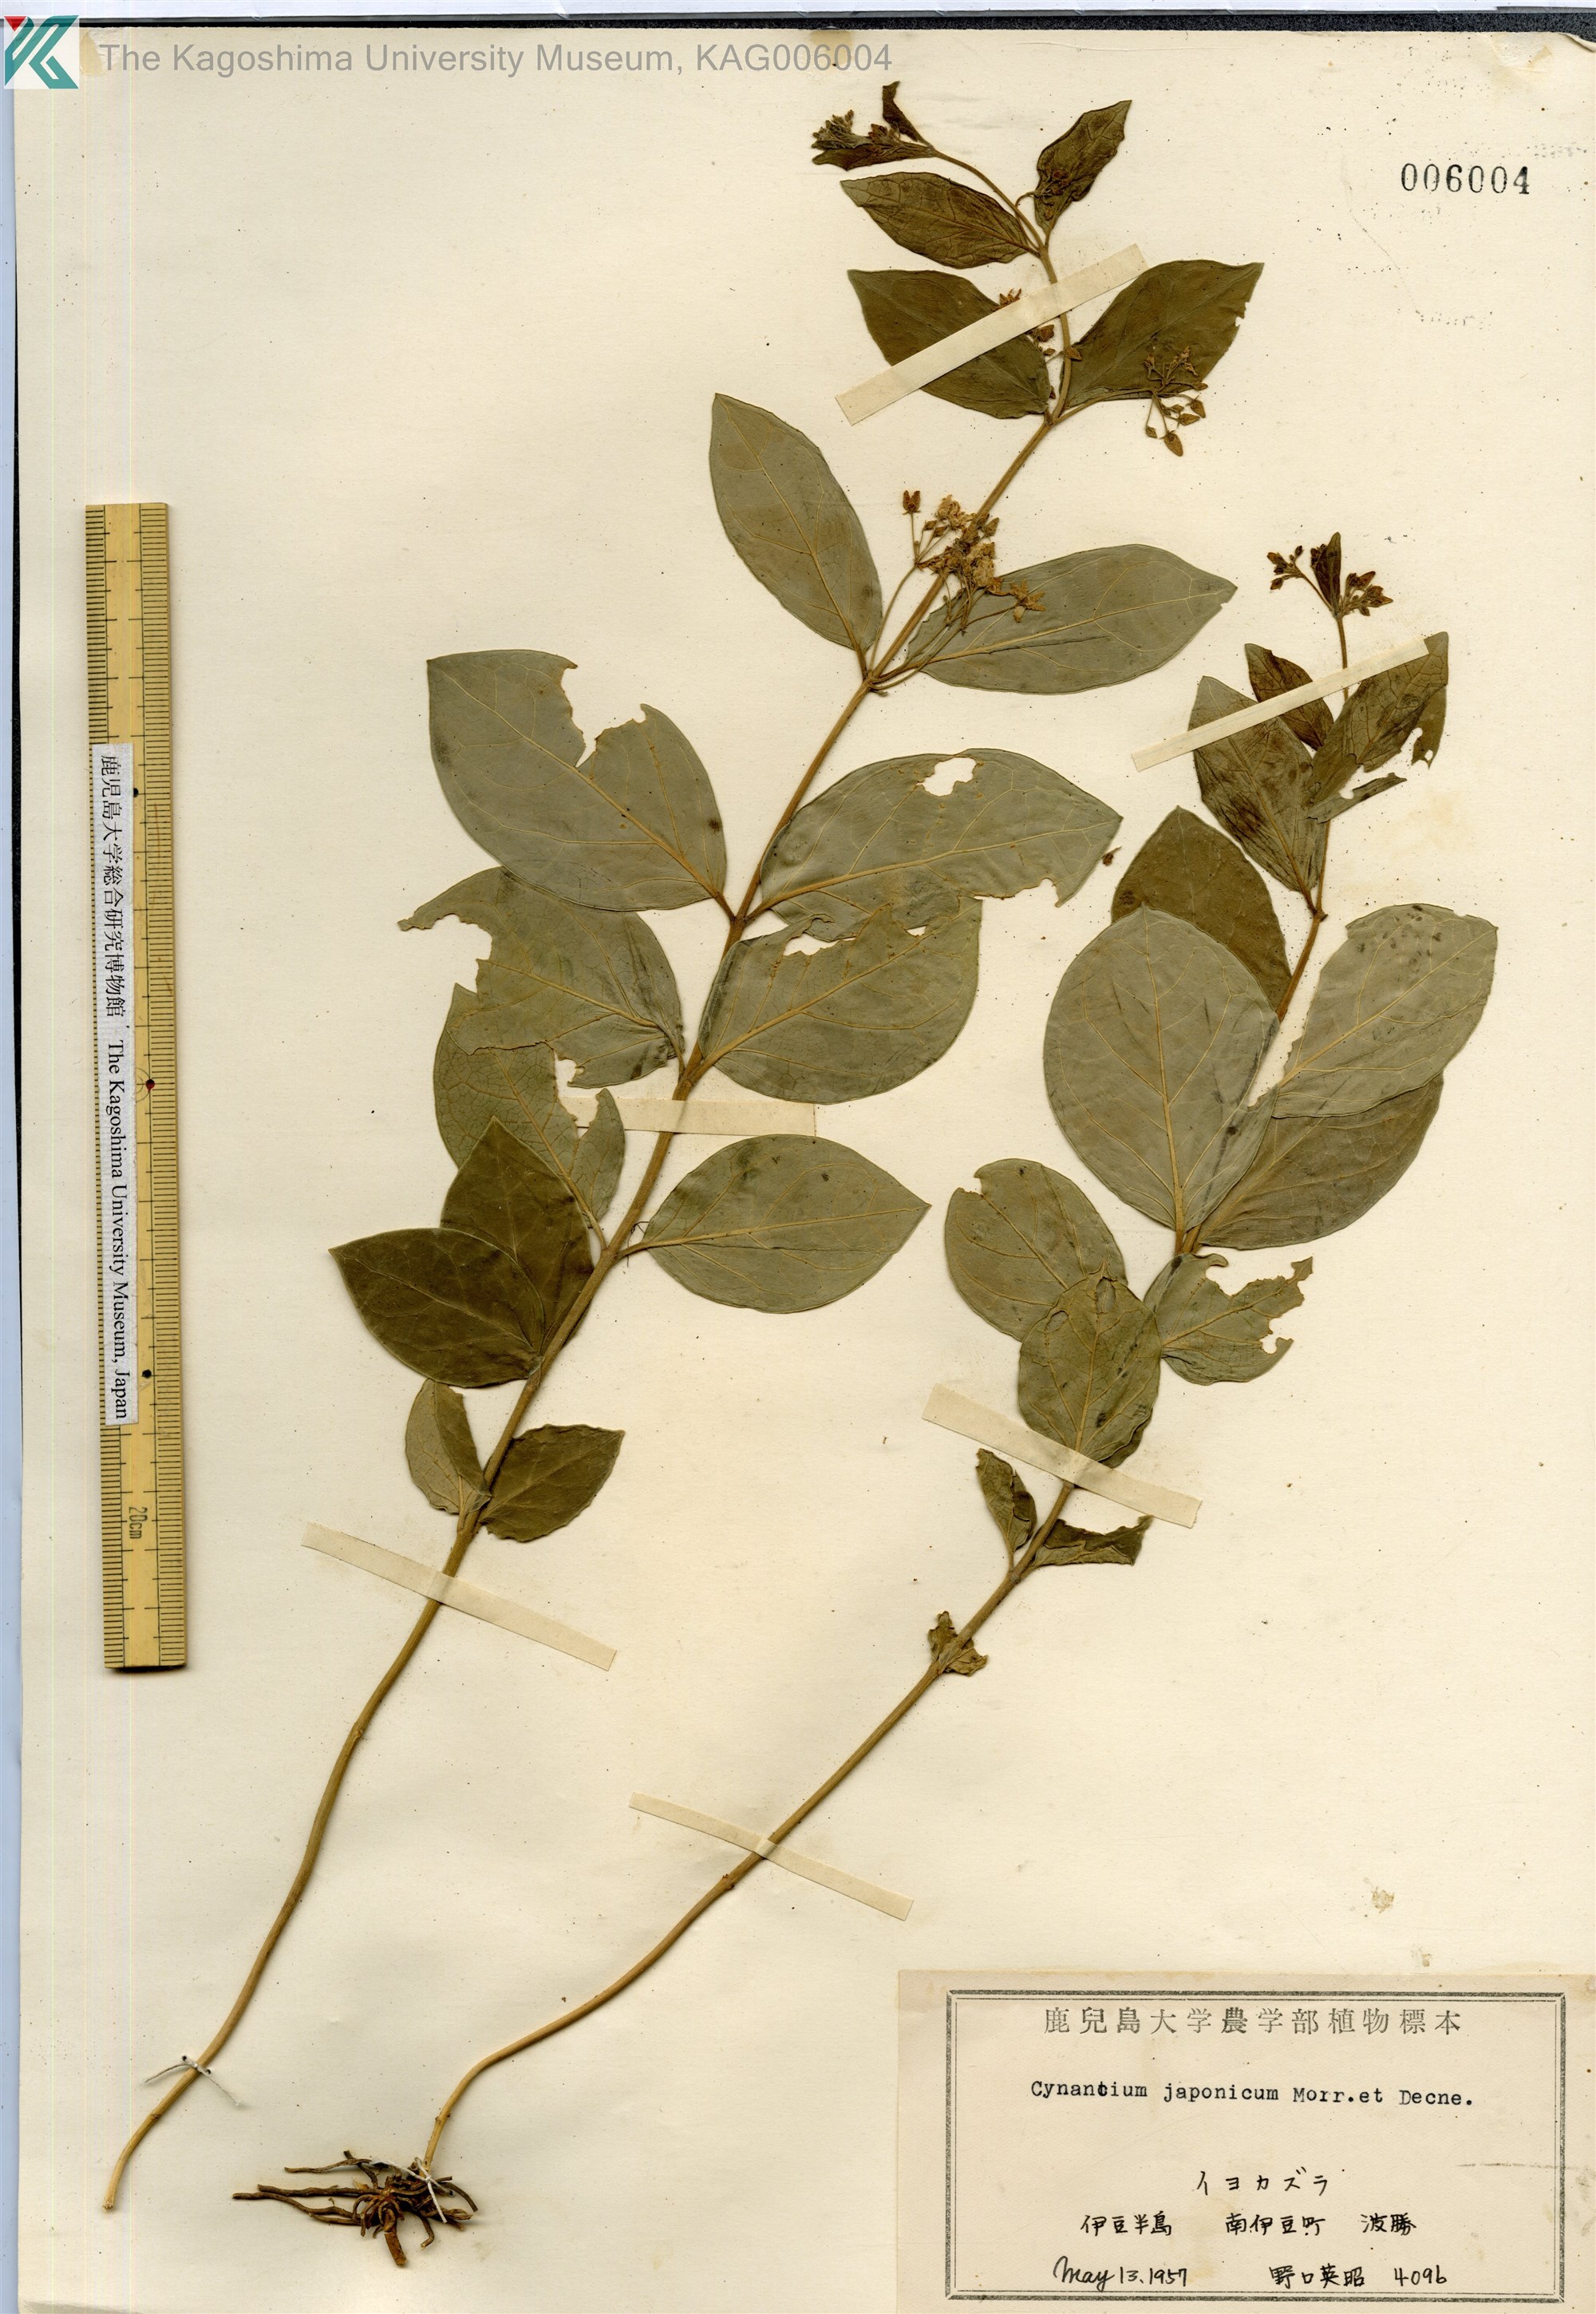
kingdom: Plantae
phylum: Tracheophyta
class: Magnoliopsida
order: Gentianales
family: Apocynaceae
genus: Vincetoxicum
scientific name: Vincetoxicum japonicum
